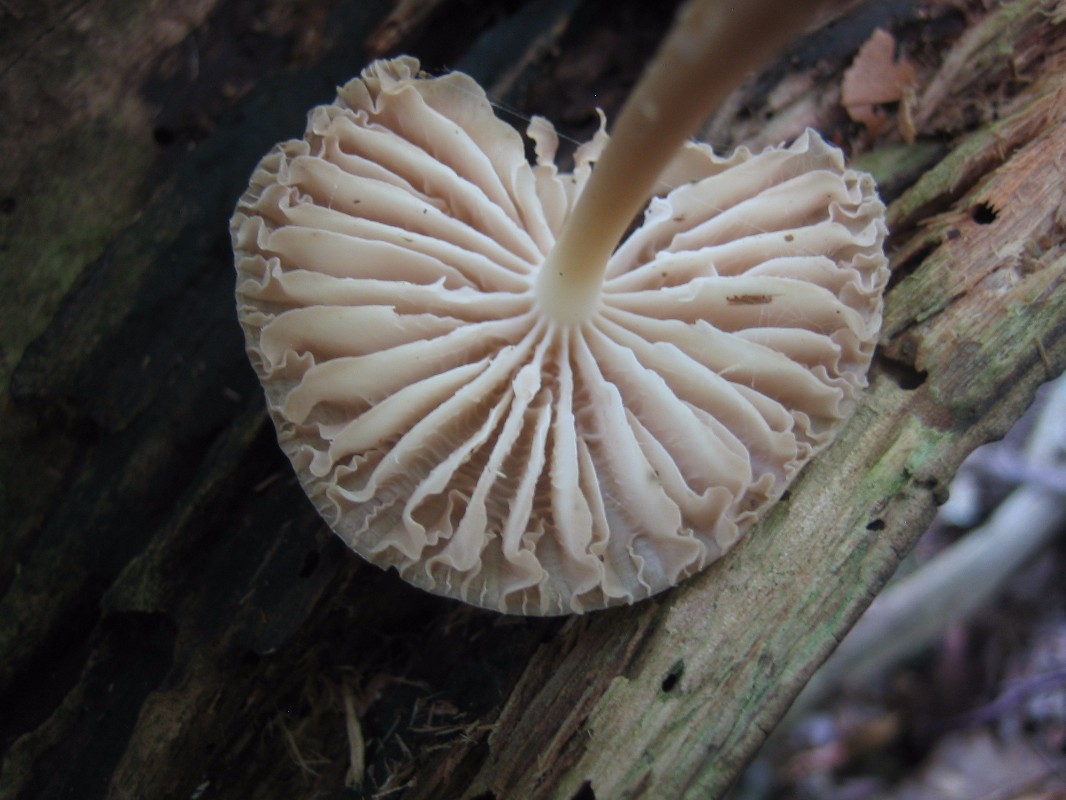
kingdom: Fungi
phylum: Basidiomycota
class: Agaricomycetes
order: Agaricales
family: Mycenaceae
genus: Mycena
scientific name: Mycena galericulata
